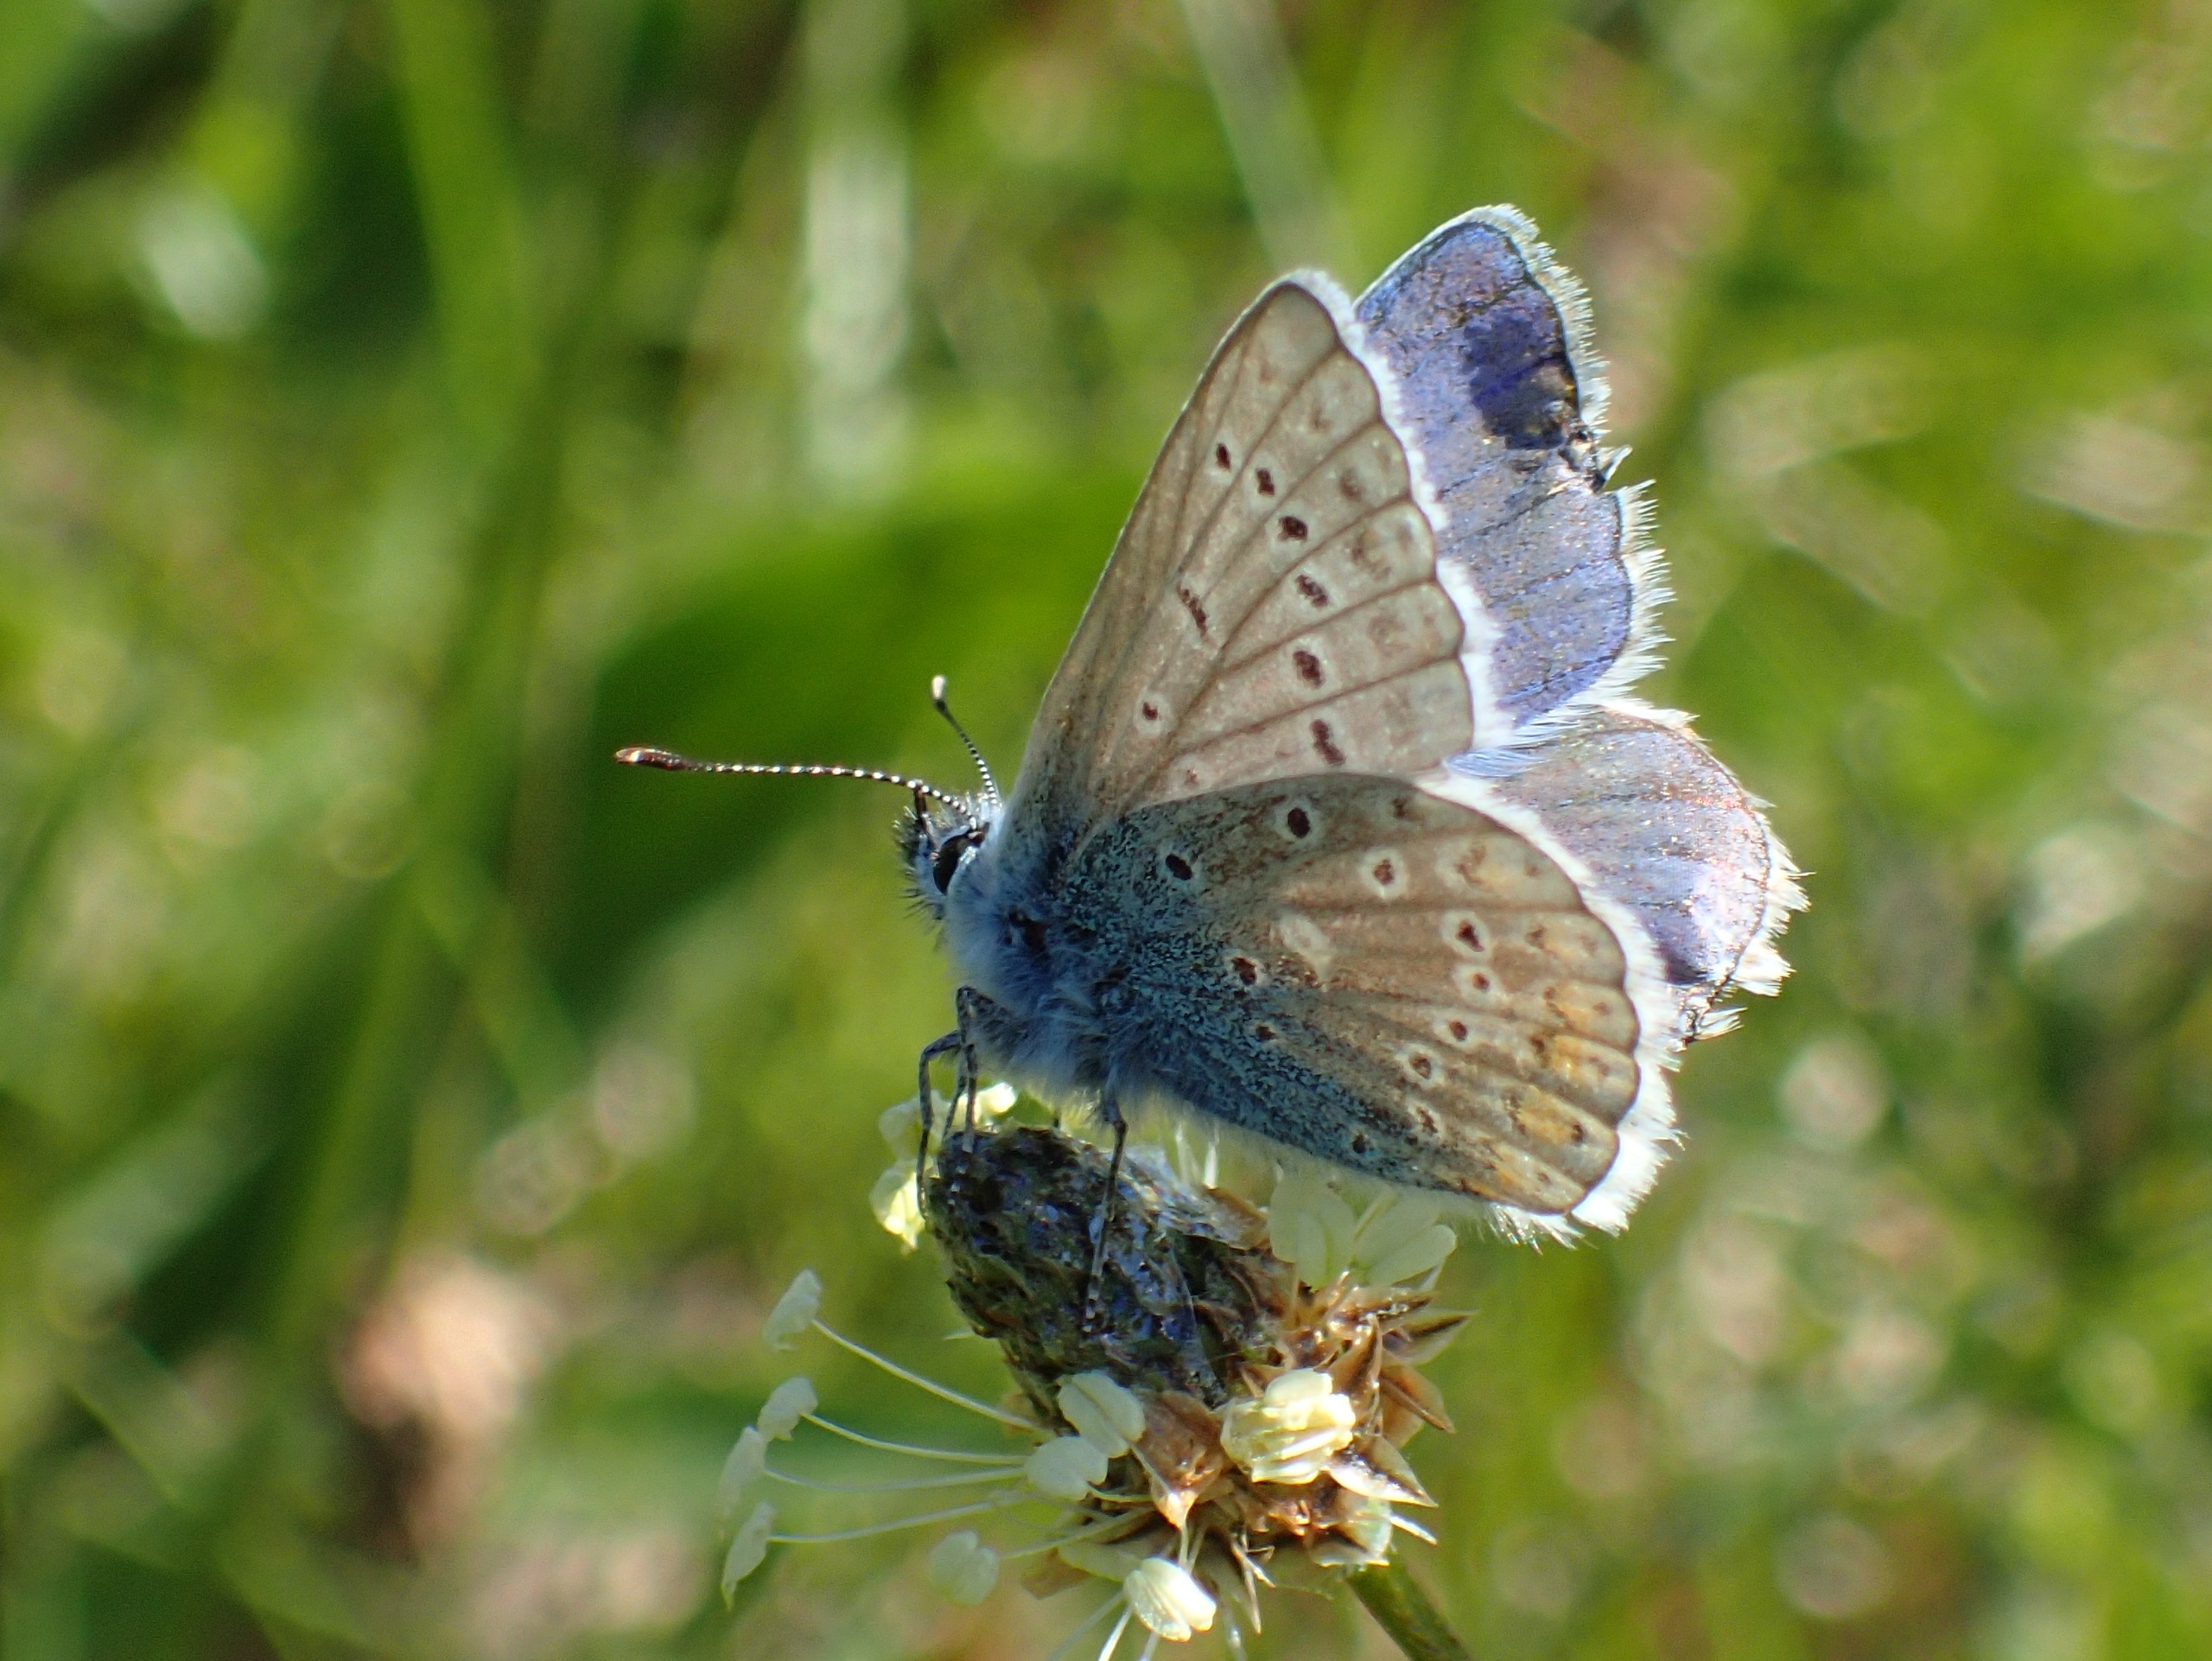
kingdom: Animalia
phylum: Arthropoda
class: Insecta
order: Lepidoptera
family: Lycaenidae
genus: Polyommatus
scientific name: Polyommatus icarus
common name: Almindelig blåfugl
